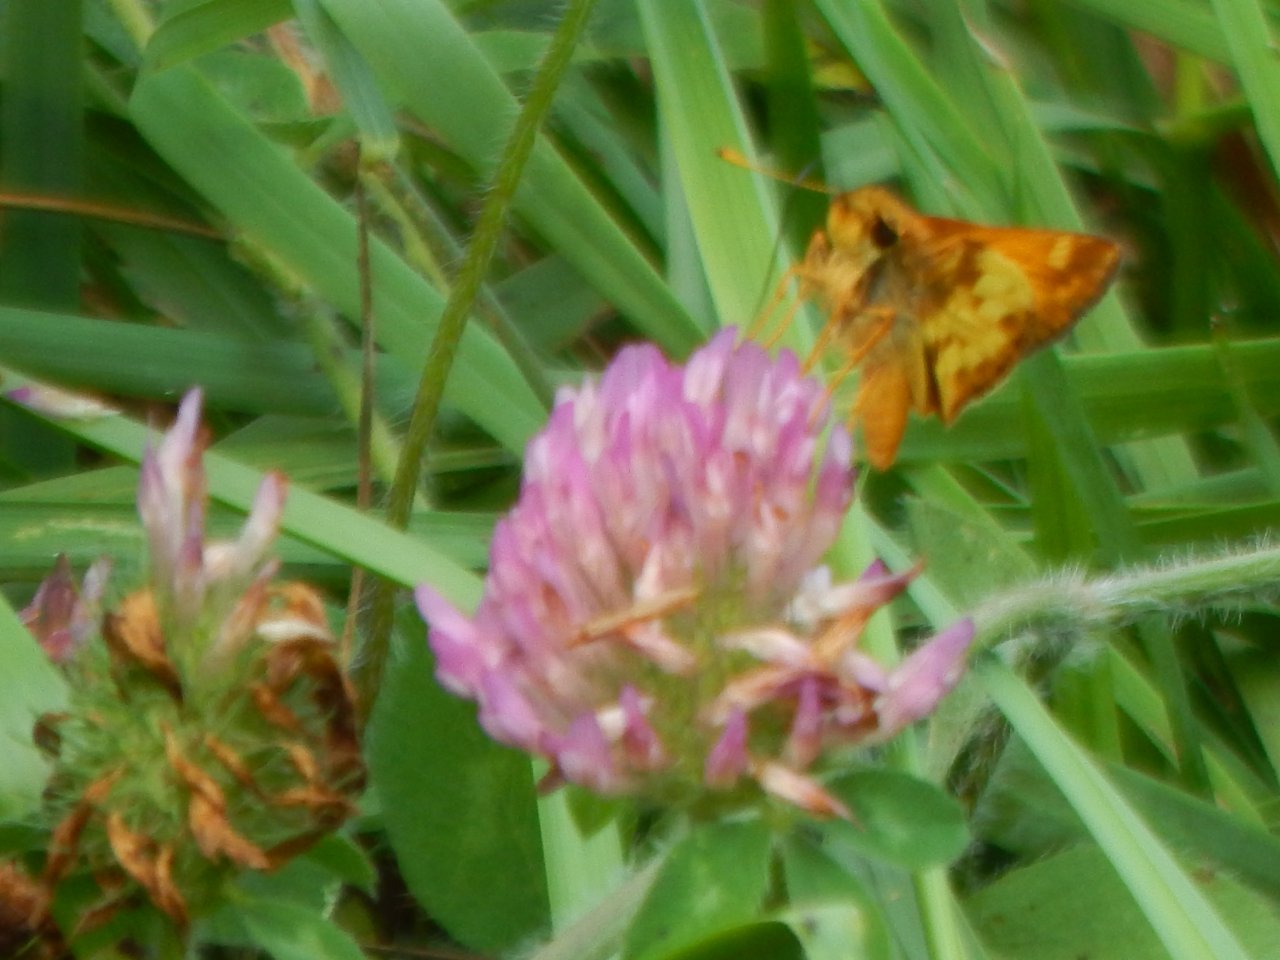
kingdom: Animalia
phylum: Arthropoda
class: Insecta
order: Lepidoptera
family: Hesperiidae
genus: Lon
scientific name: Lon zabulon
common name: Zabulon Skipper
